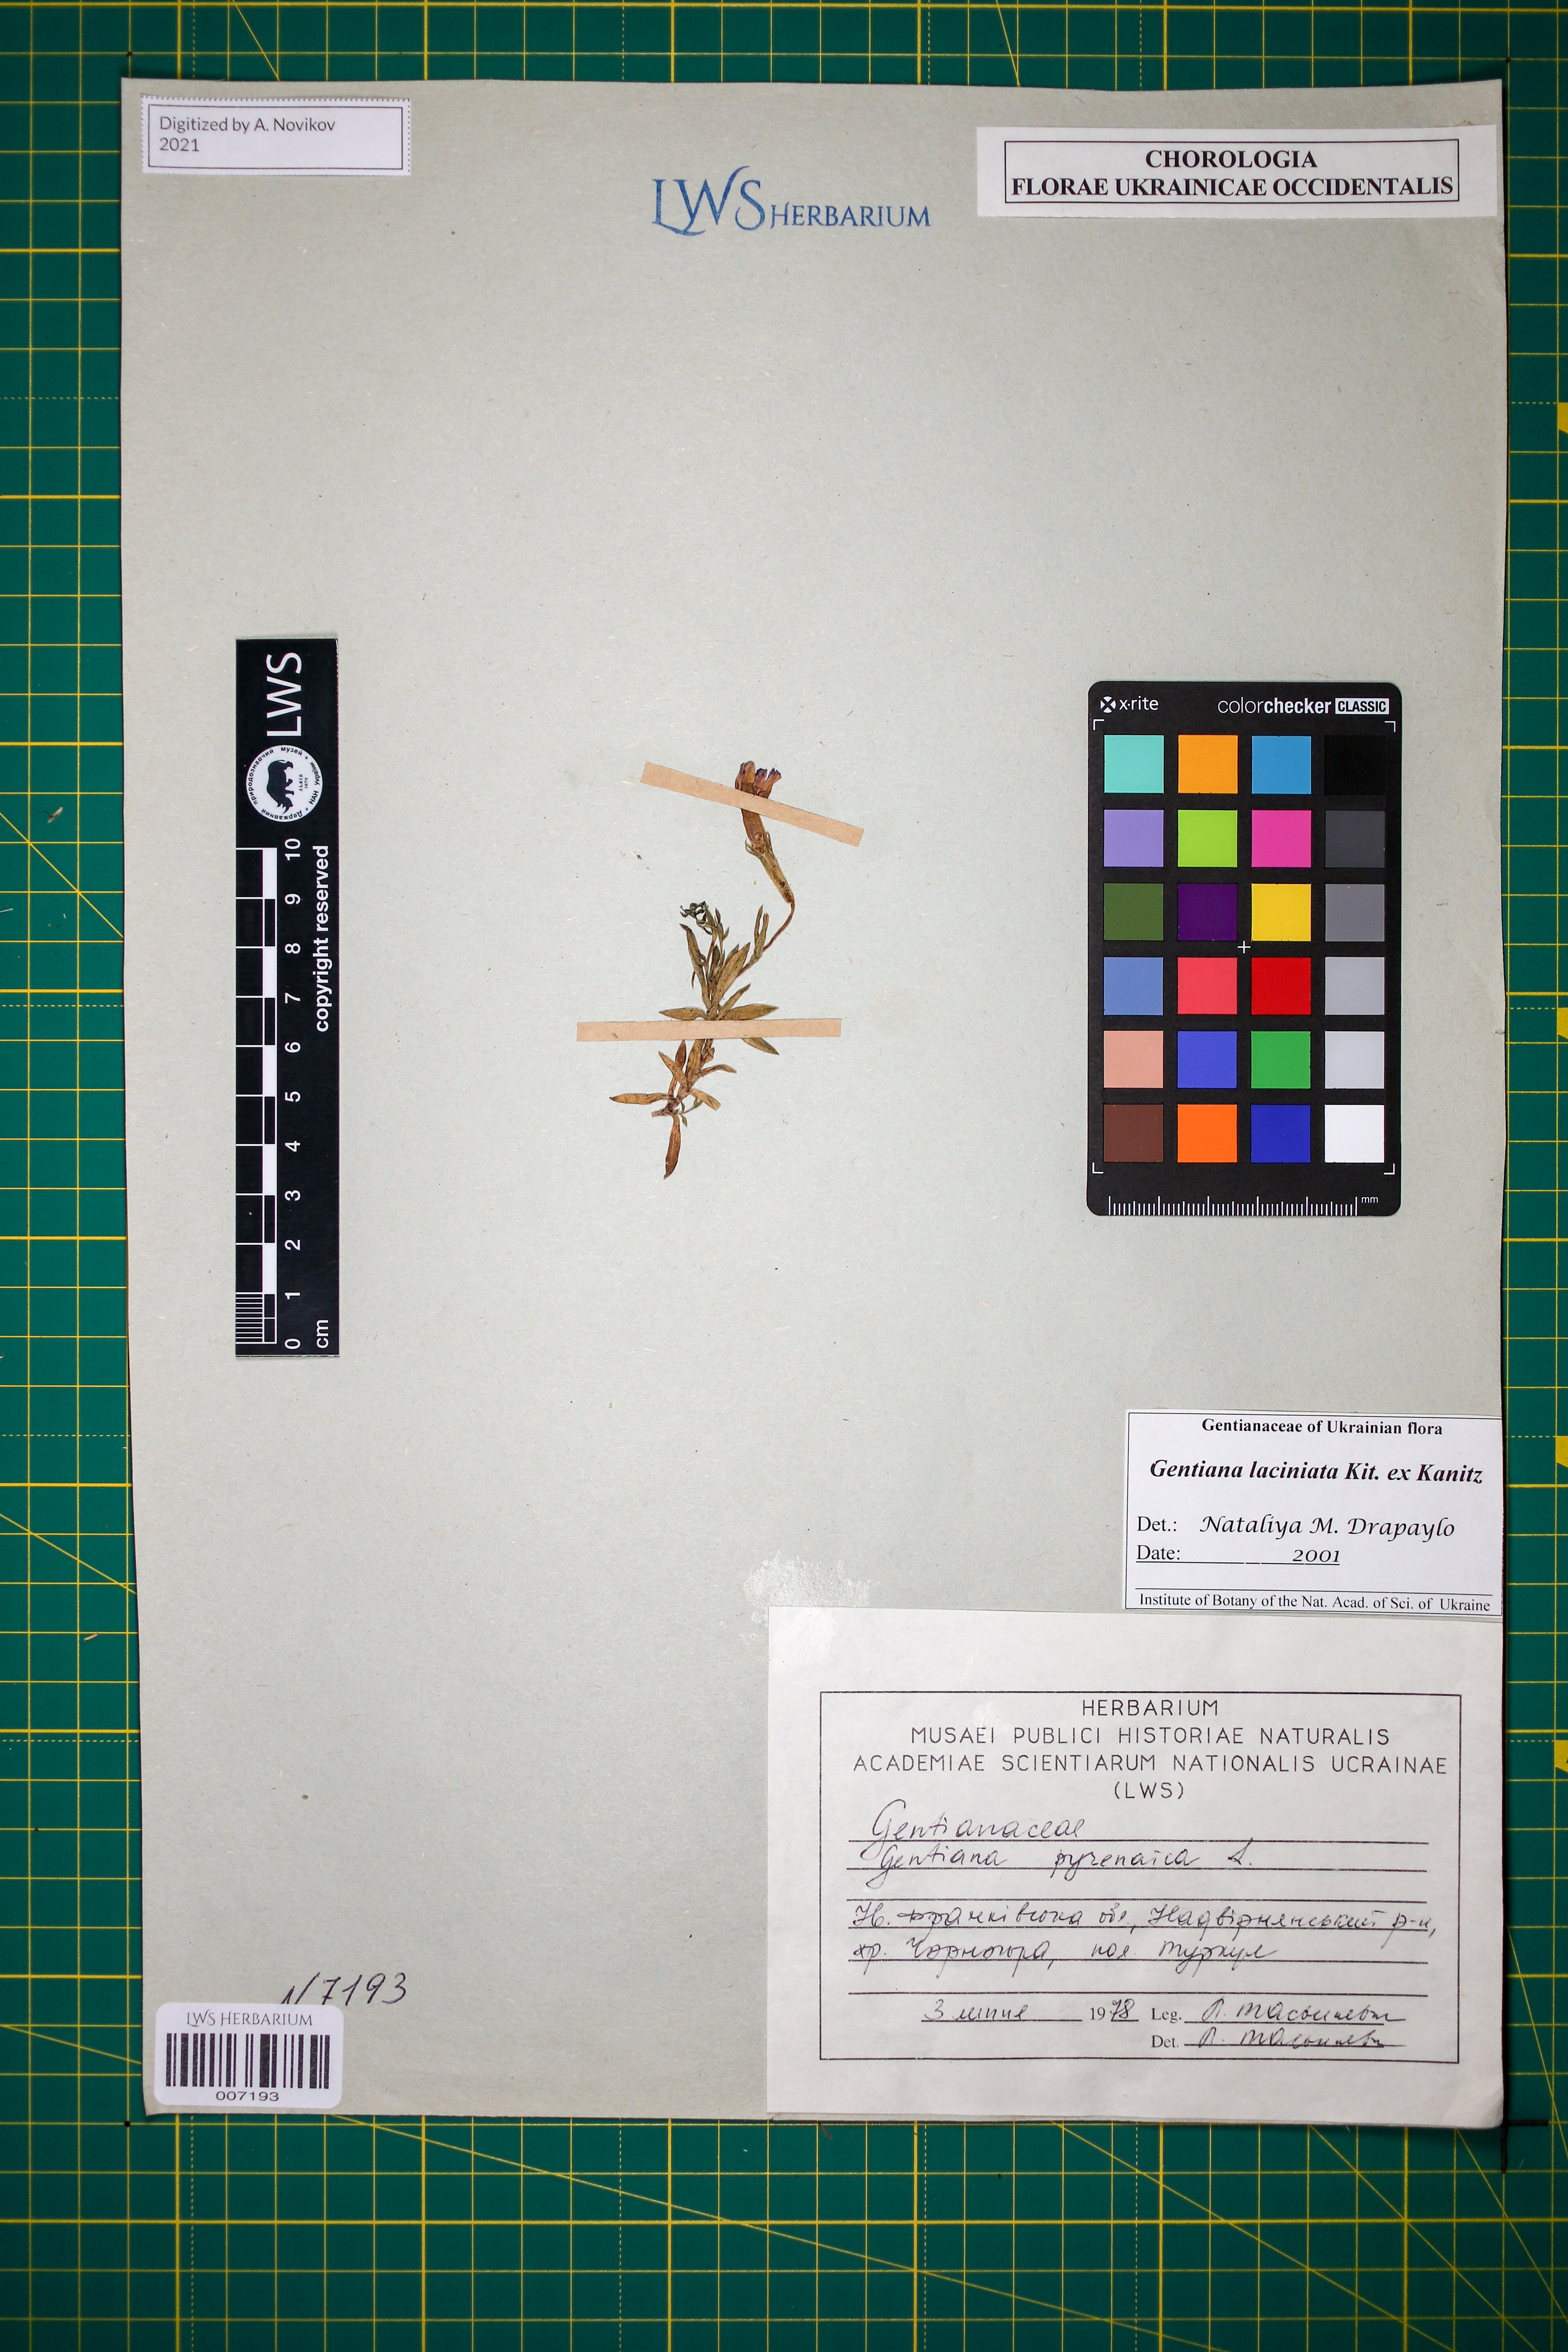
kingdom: Plantae
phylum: Tracheophyta
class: Magnoliopsida
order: Gentianales
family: Gentianaceae
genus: Gentiana
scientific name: Gentiana laciniata
